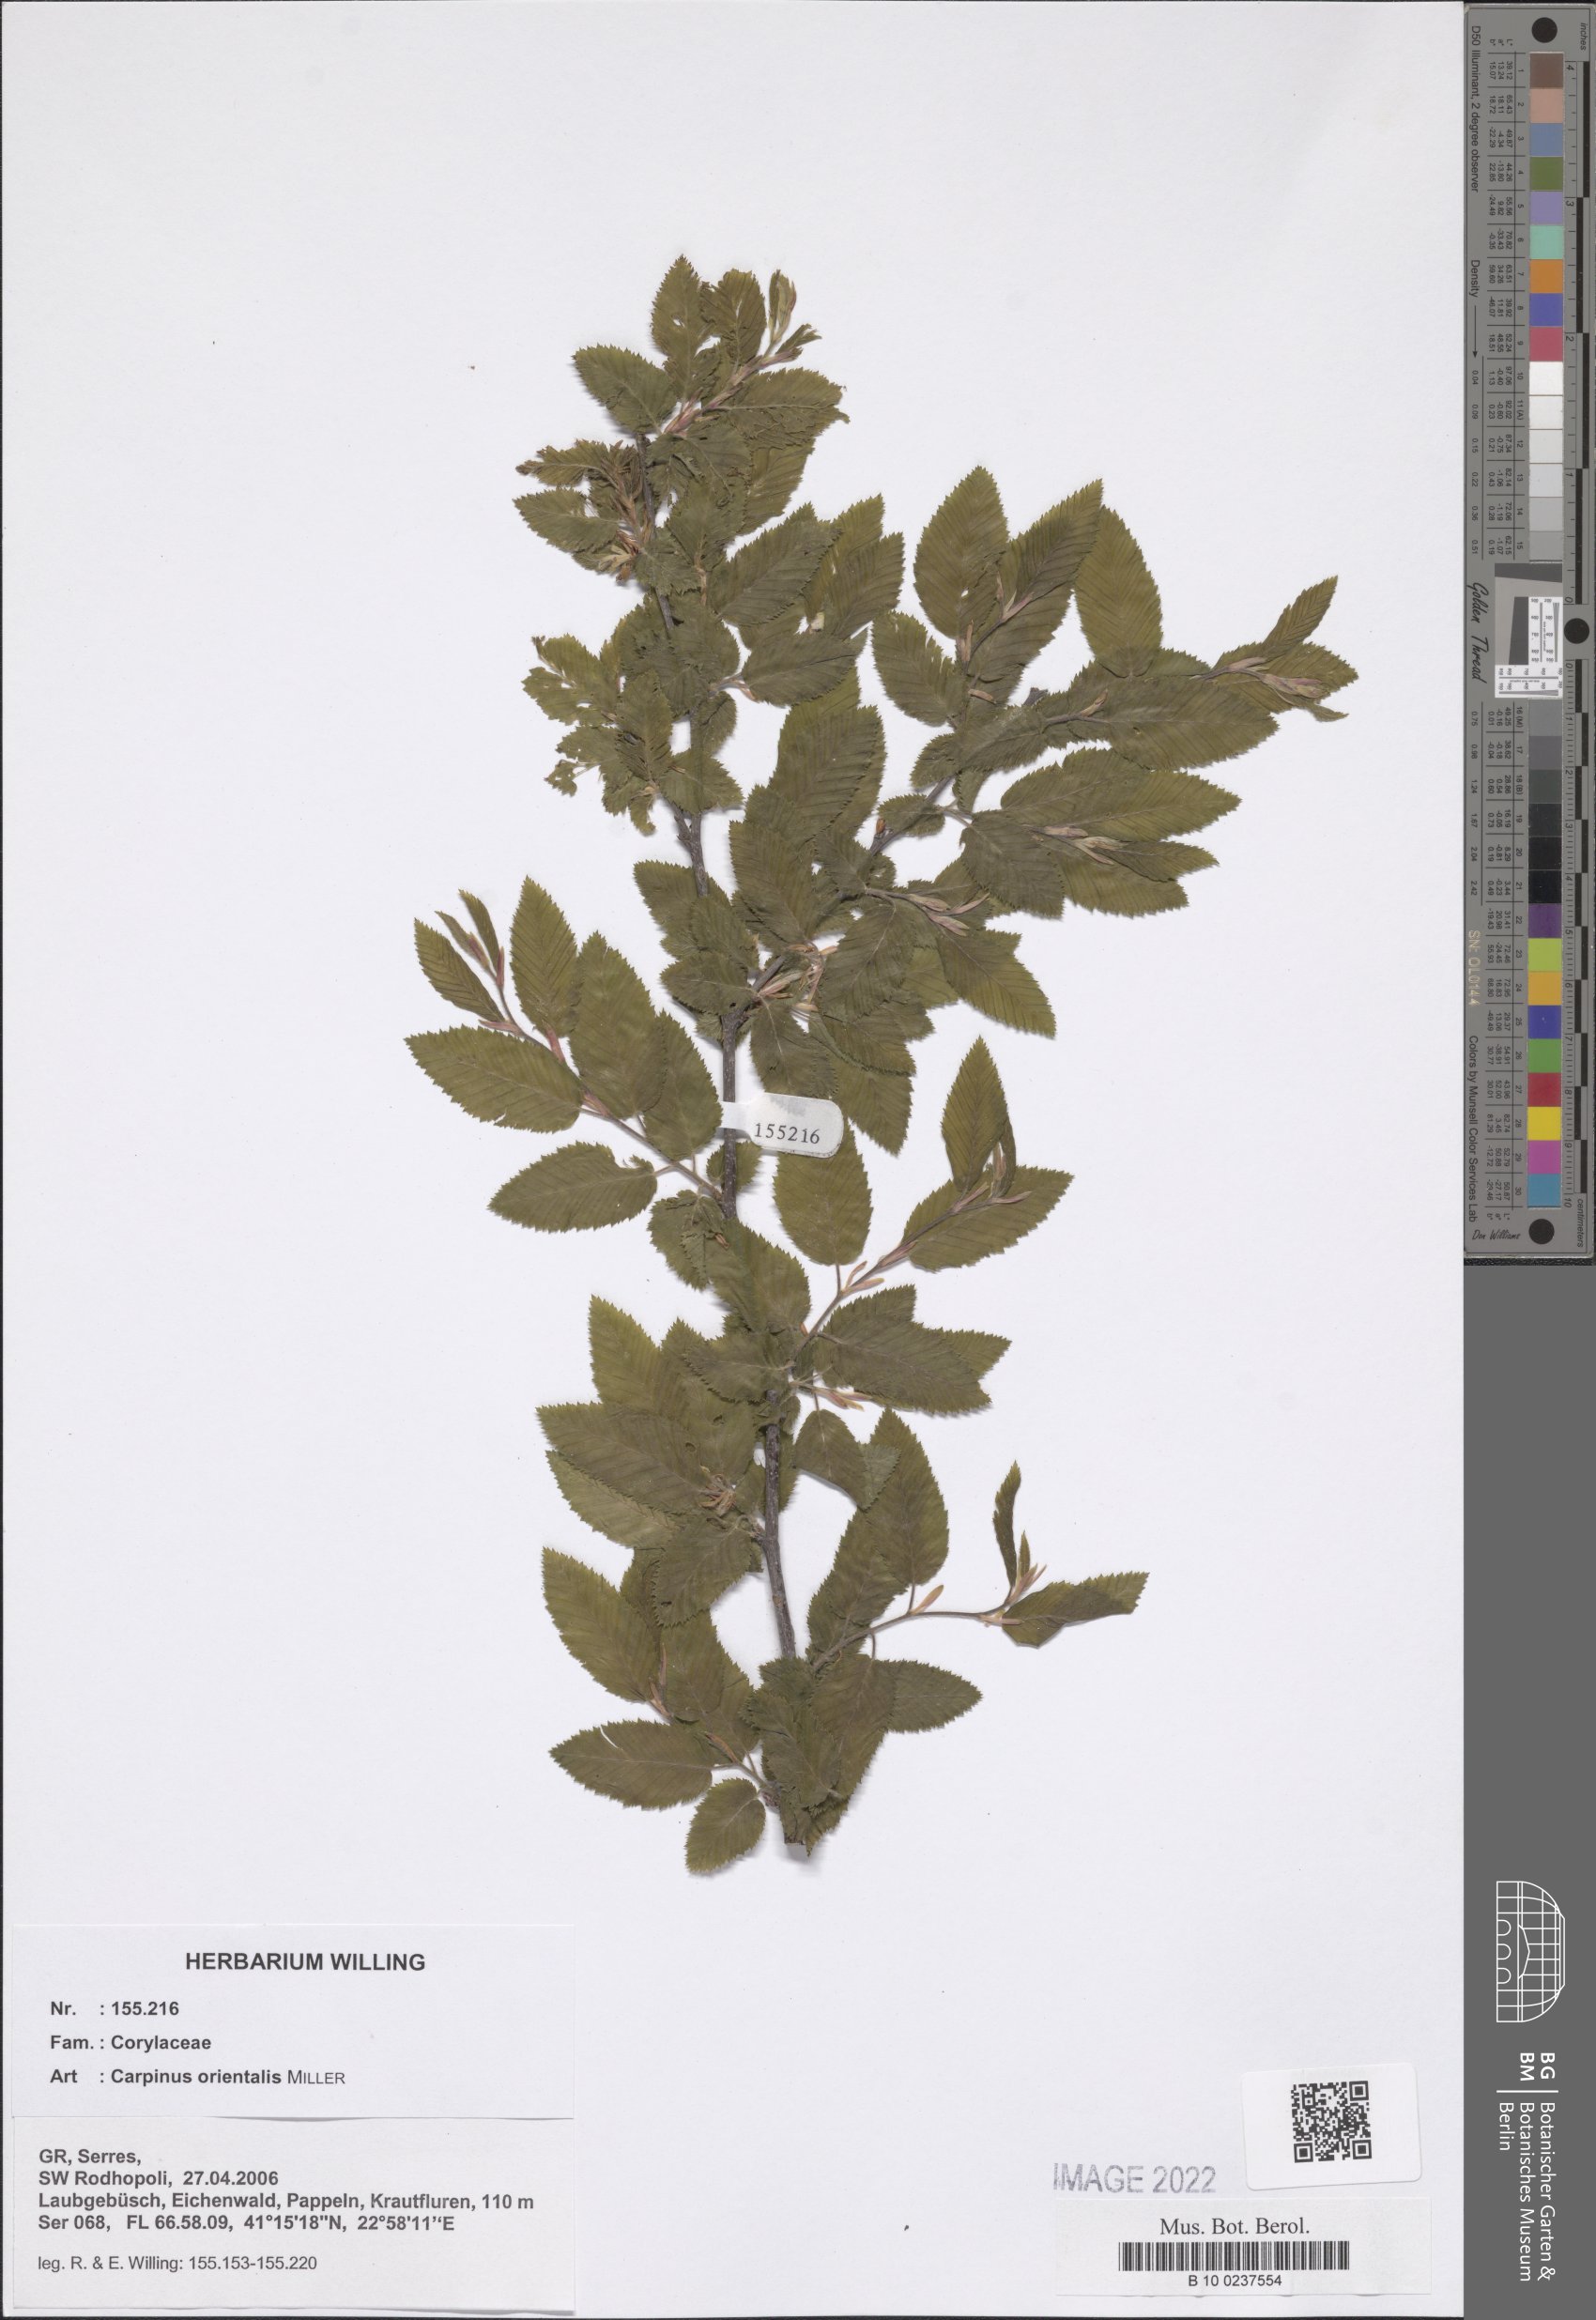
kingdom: Plantae
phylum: Tracheophyta
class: Magnoliopsida
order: Fagales
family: Betulaceae
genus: Carpinus
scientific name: Carpinus orientalis
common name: Eastern hornbeam
